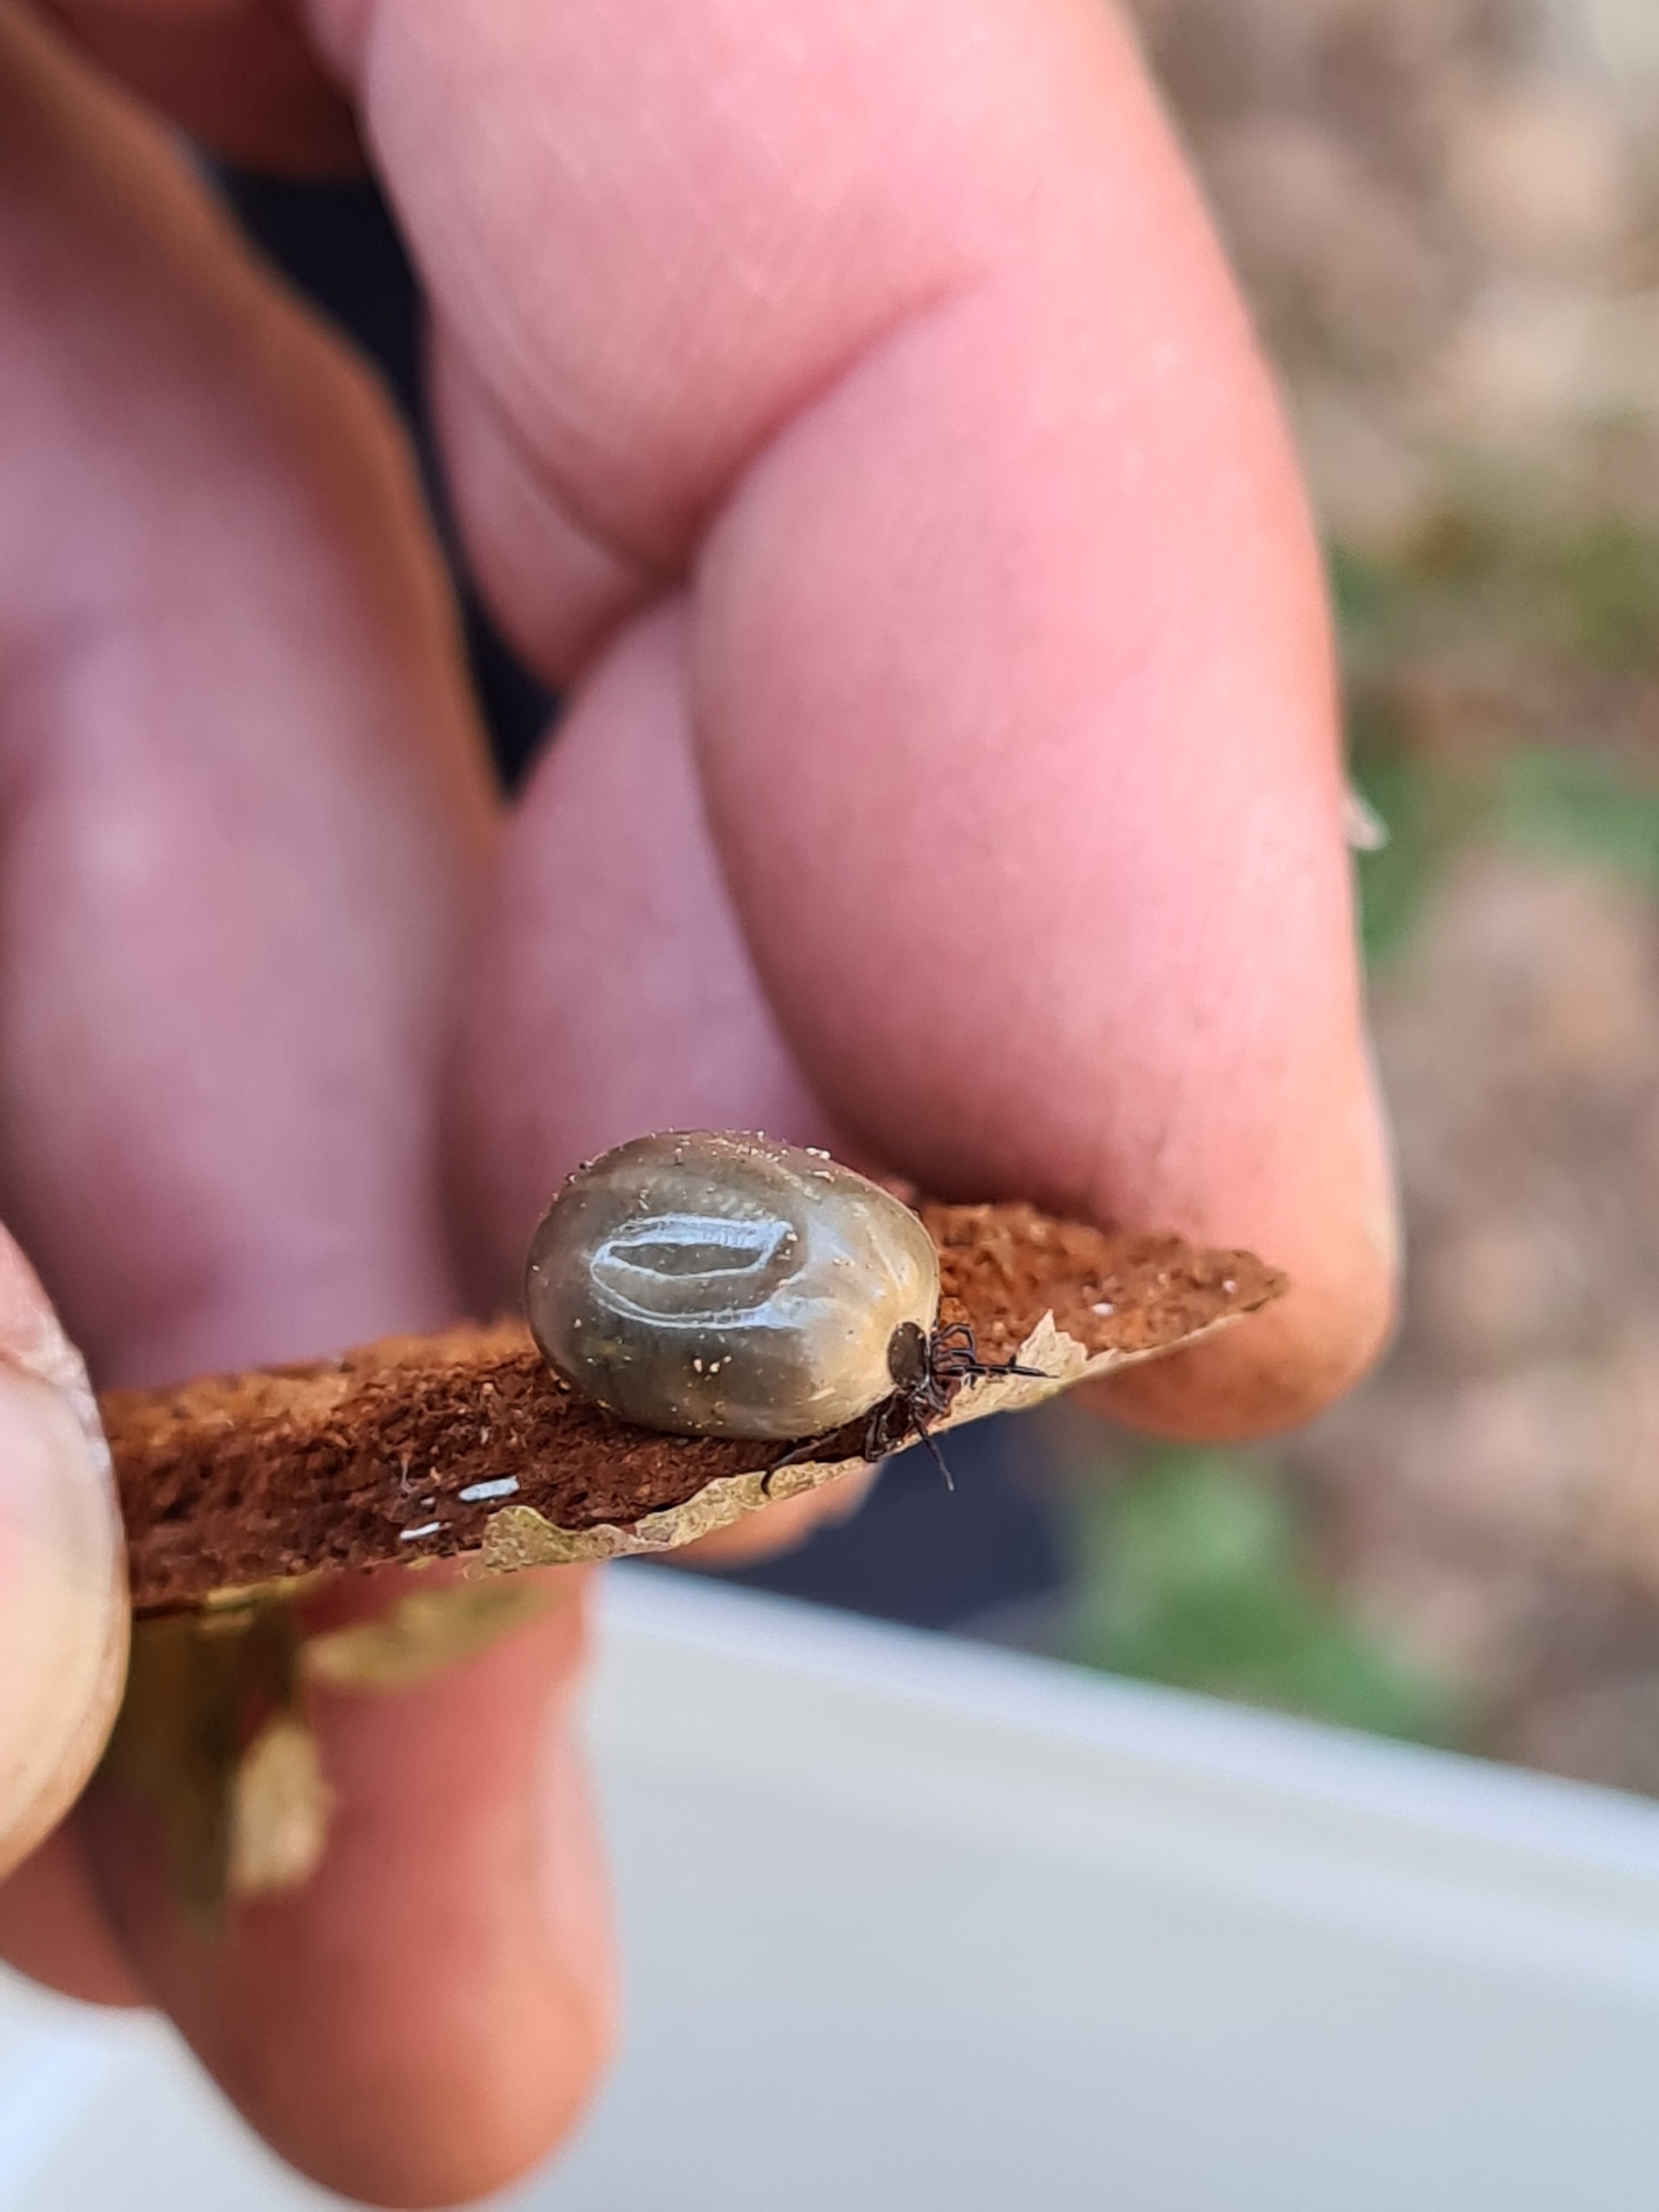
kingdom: Animalia
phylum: Arthropoda
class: Arachnida
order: Ixodida
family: Ixodidae
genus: Ixodes
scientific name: Ixodes ricinus
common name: Skovflåt
